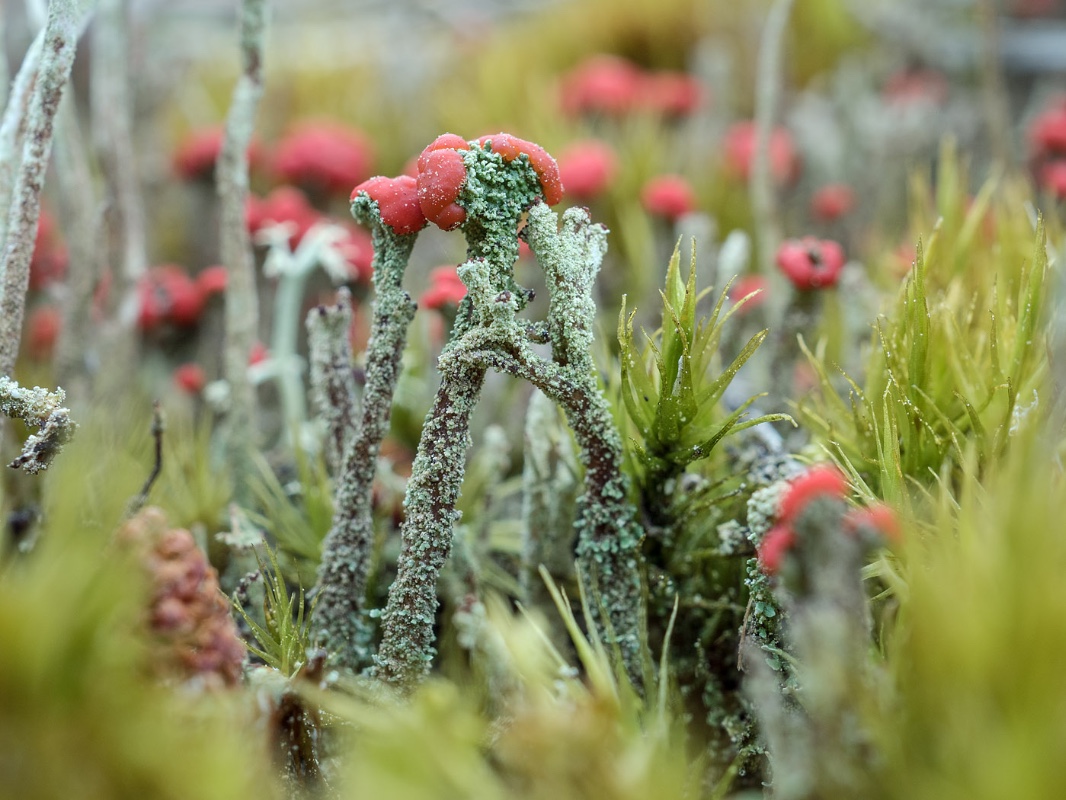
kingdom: Fungi
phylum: Ascomycota
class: Lecanoromycetes
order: Lecanorales
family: Cladoniaceae
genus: Cladonia
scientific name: Cladonia floerkeana
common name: lakrød bægerlav
